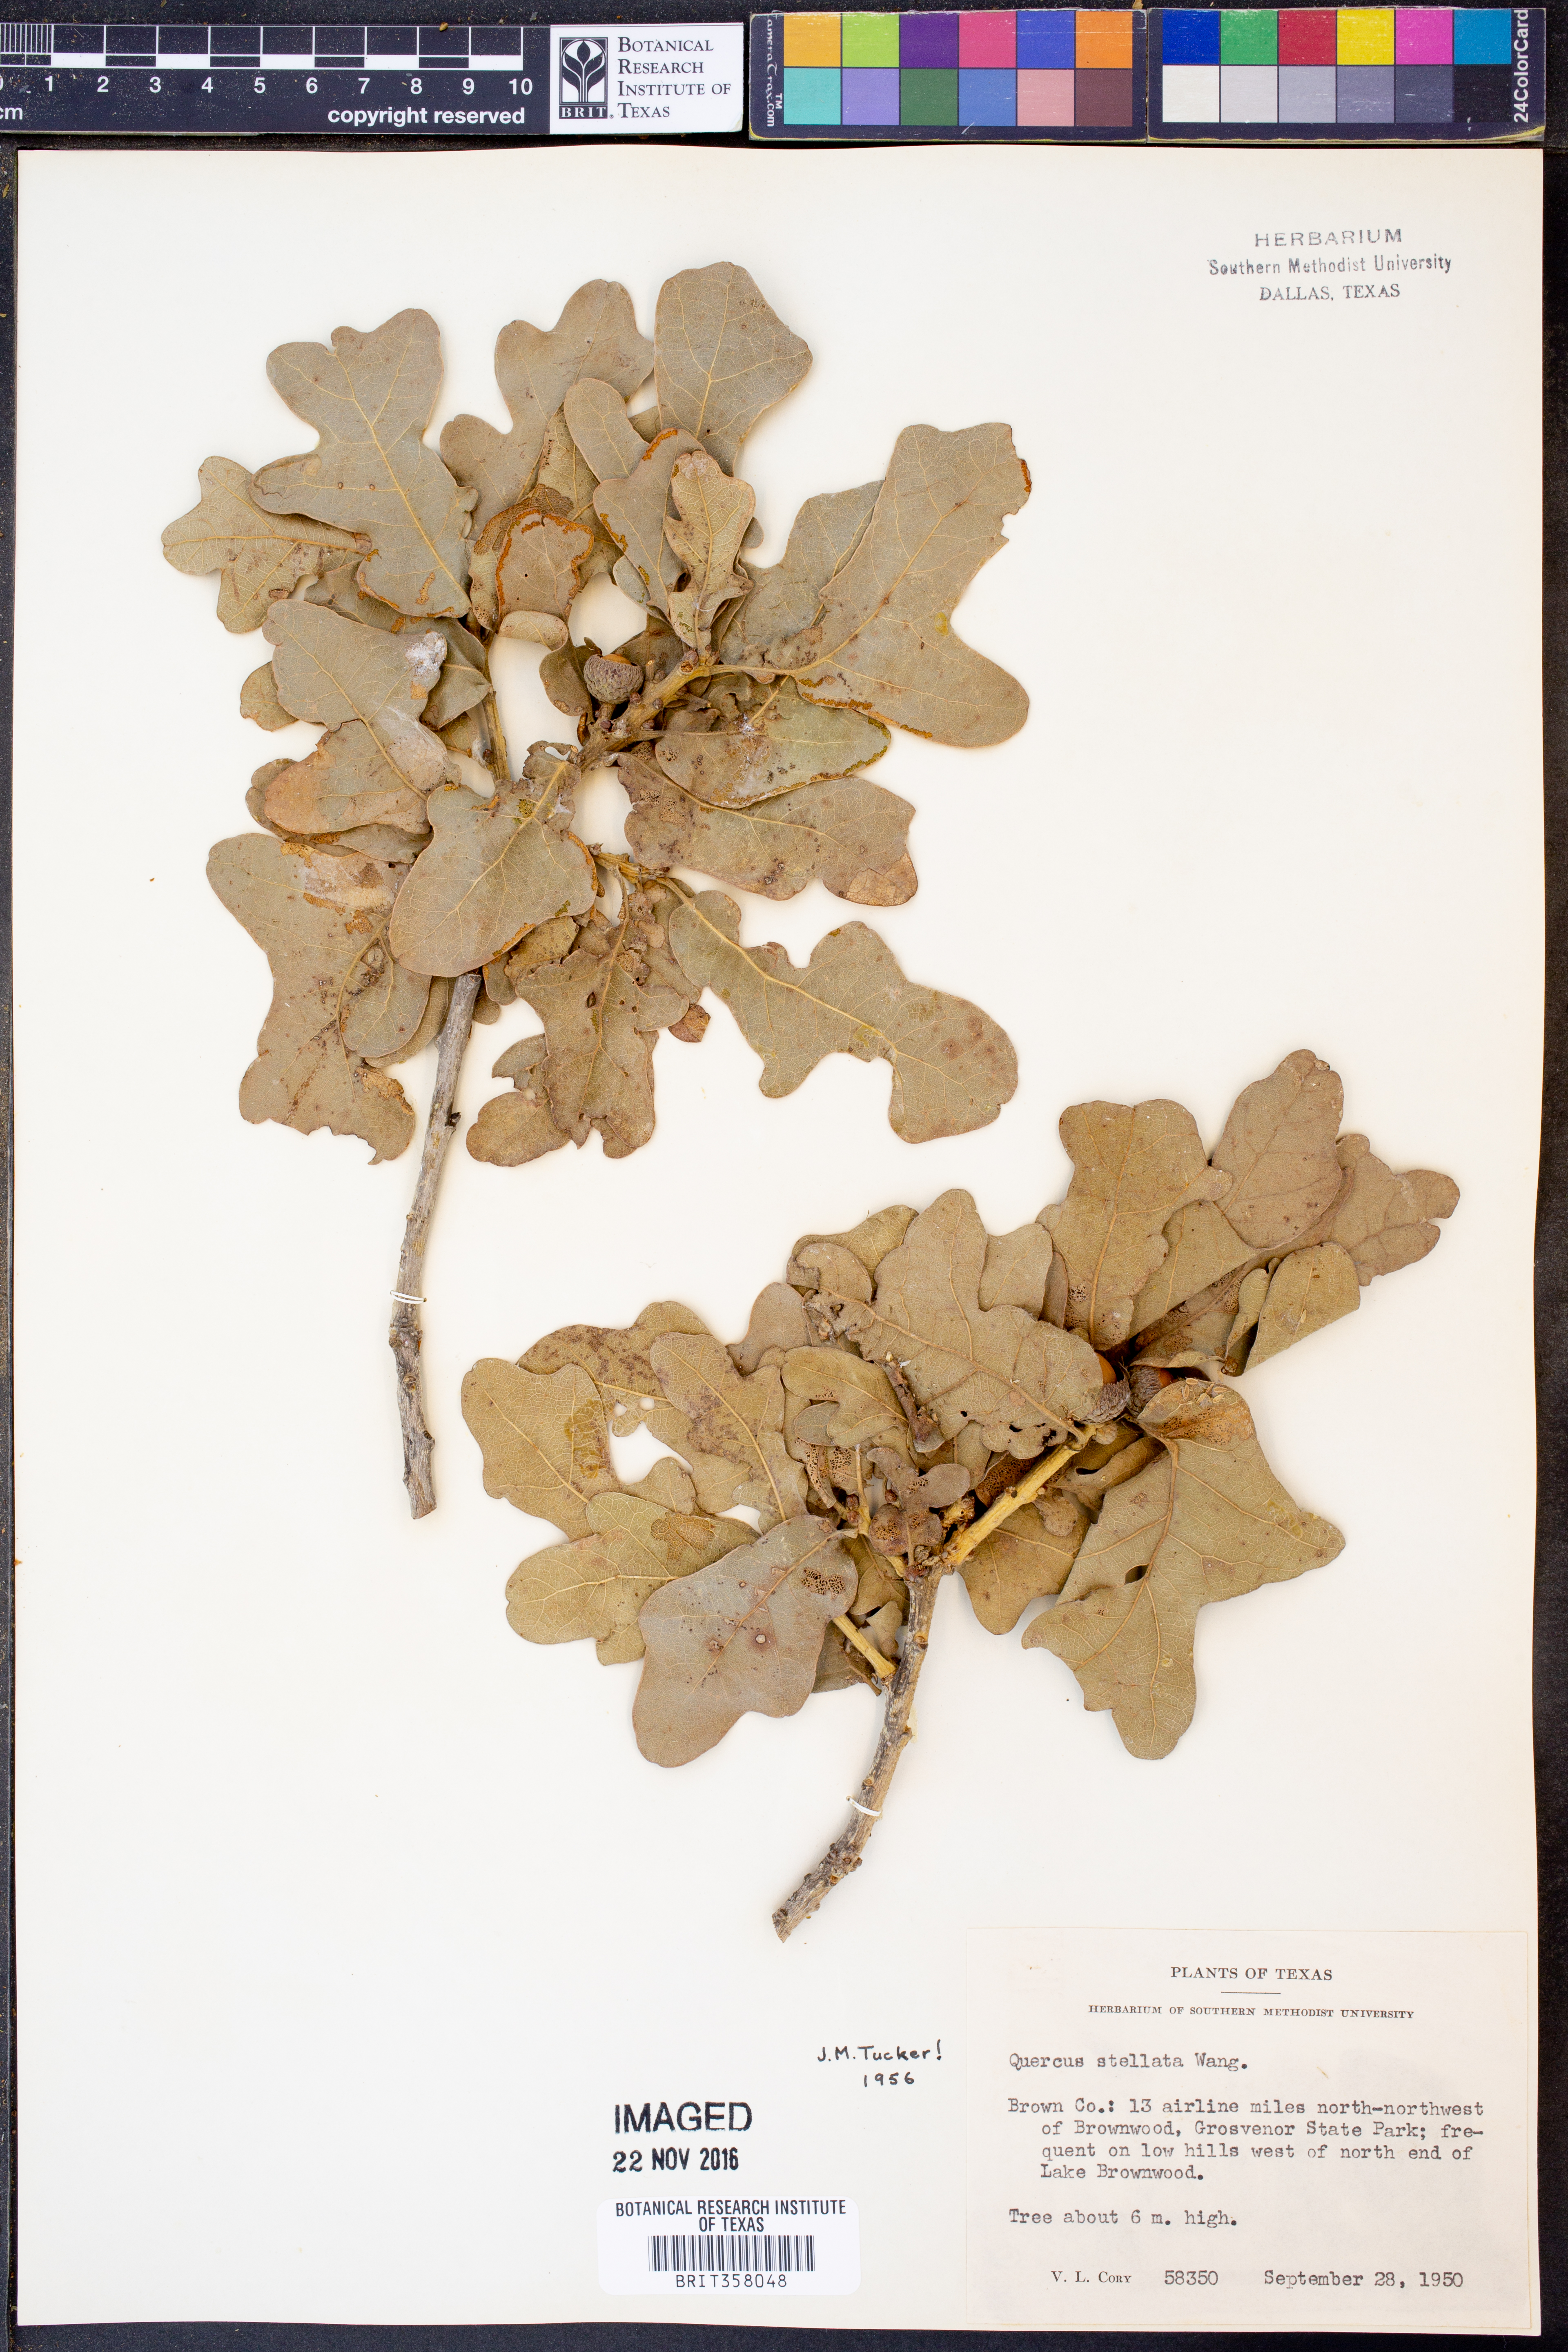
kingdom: Plantae
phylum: Tracheophyta
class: Magnoliopsida
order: Fagales
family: Fagaceae
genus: Quercus
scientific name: Quercus stellata
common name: Post oak
